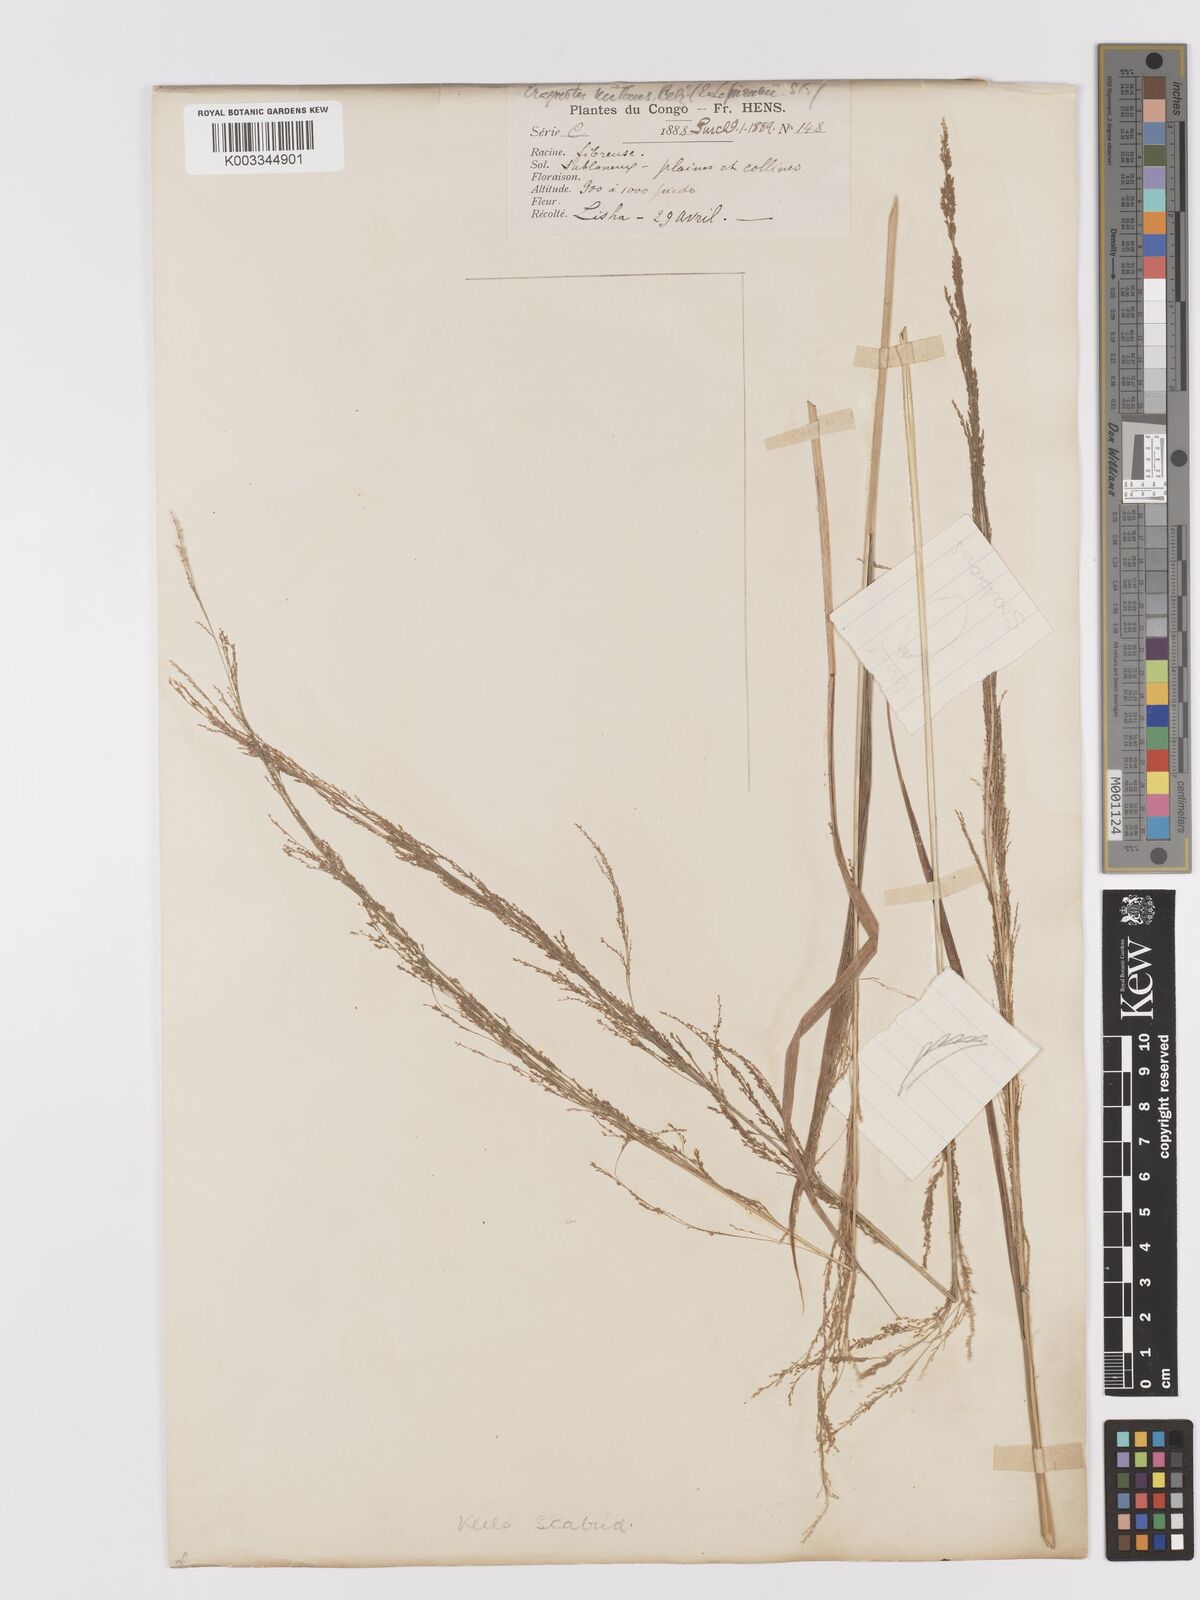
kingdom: Plantae
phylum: Tracheophyta
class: Liliopsida
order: Poales
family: Poaceae
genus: Eragrostis
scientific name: Eragrostis japonica
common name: Pond lovegrass
